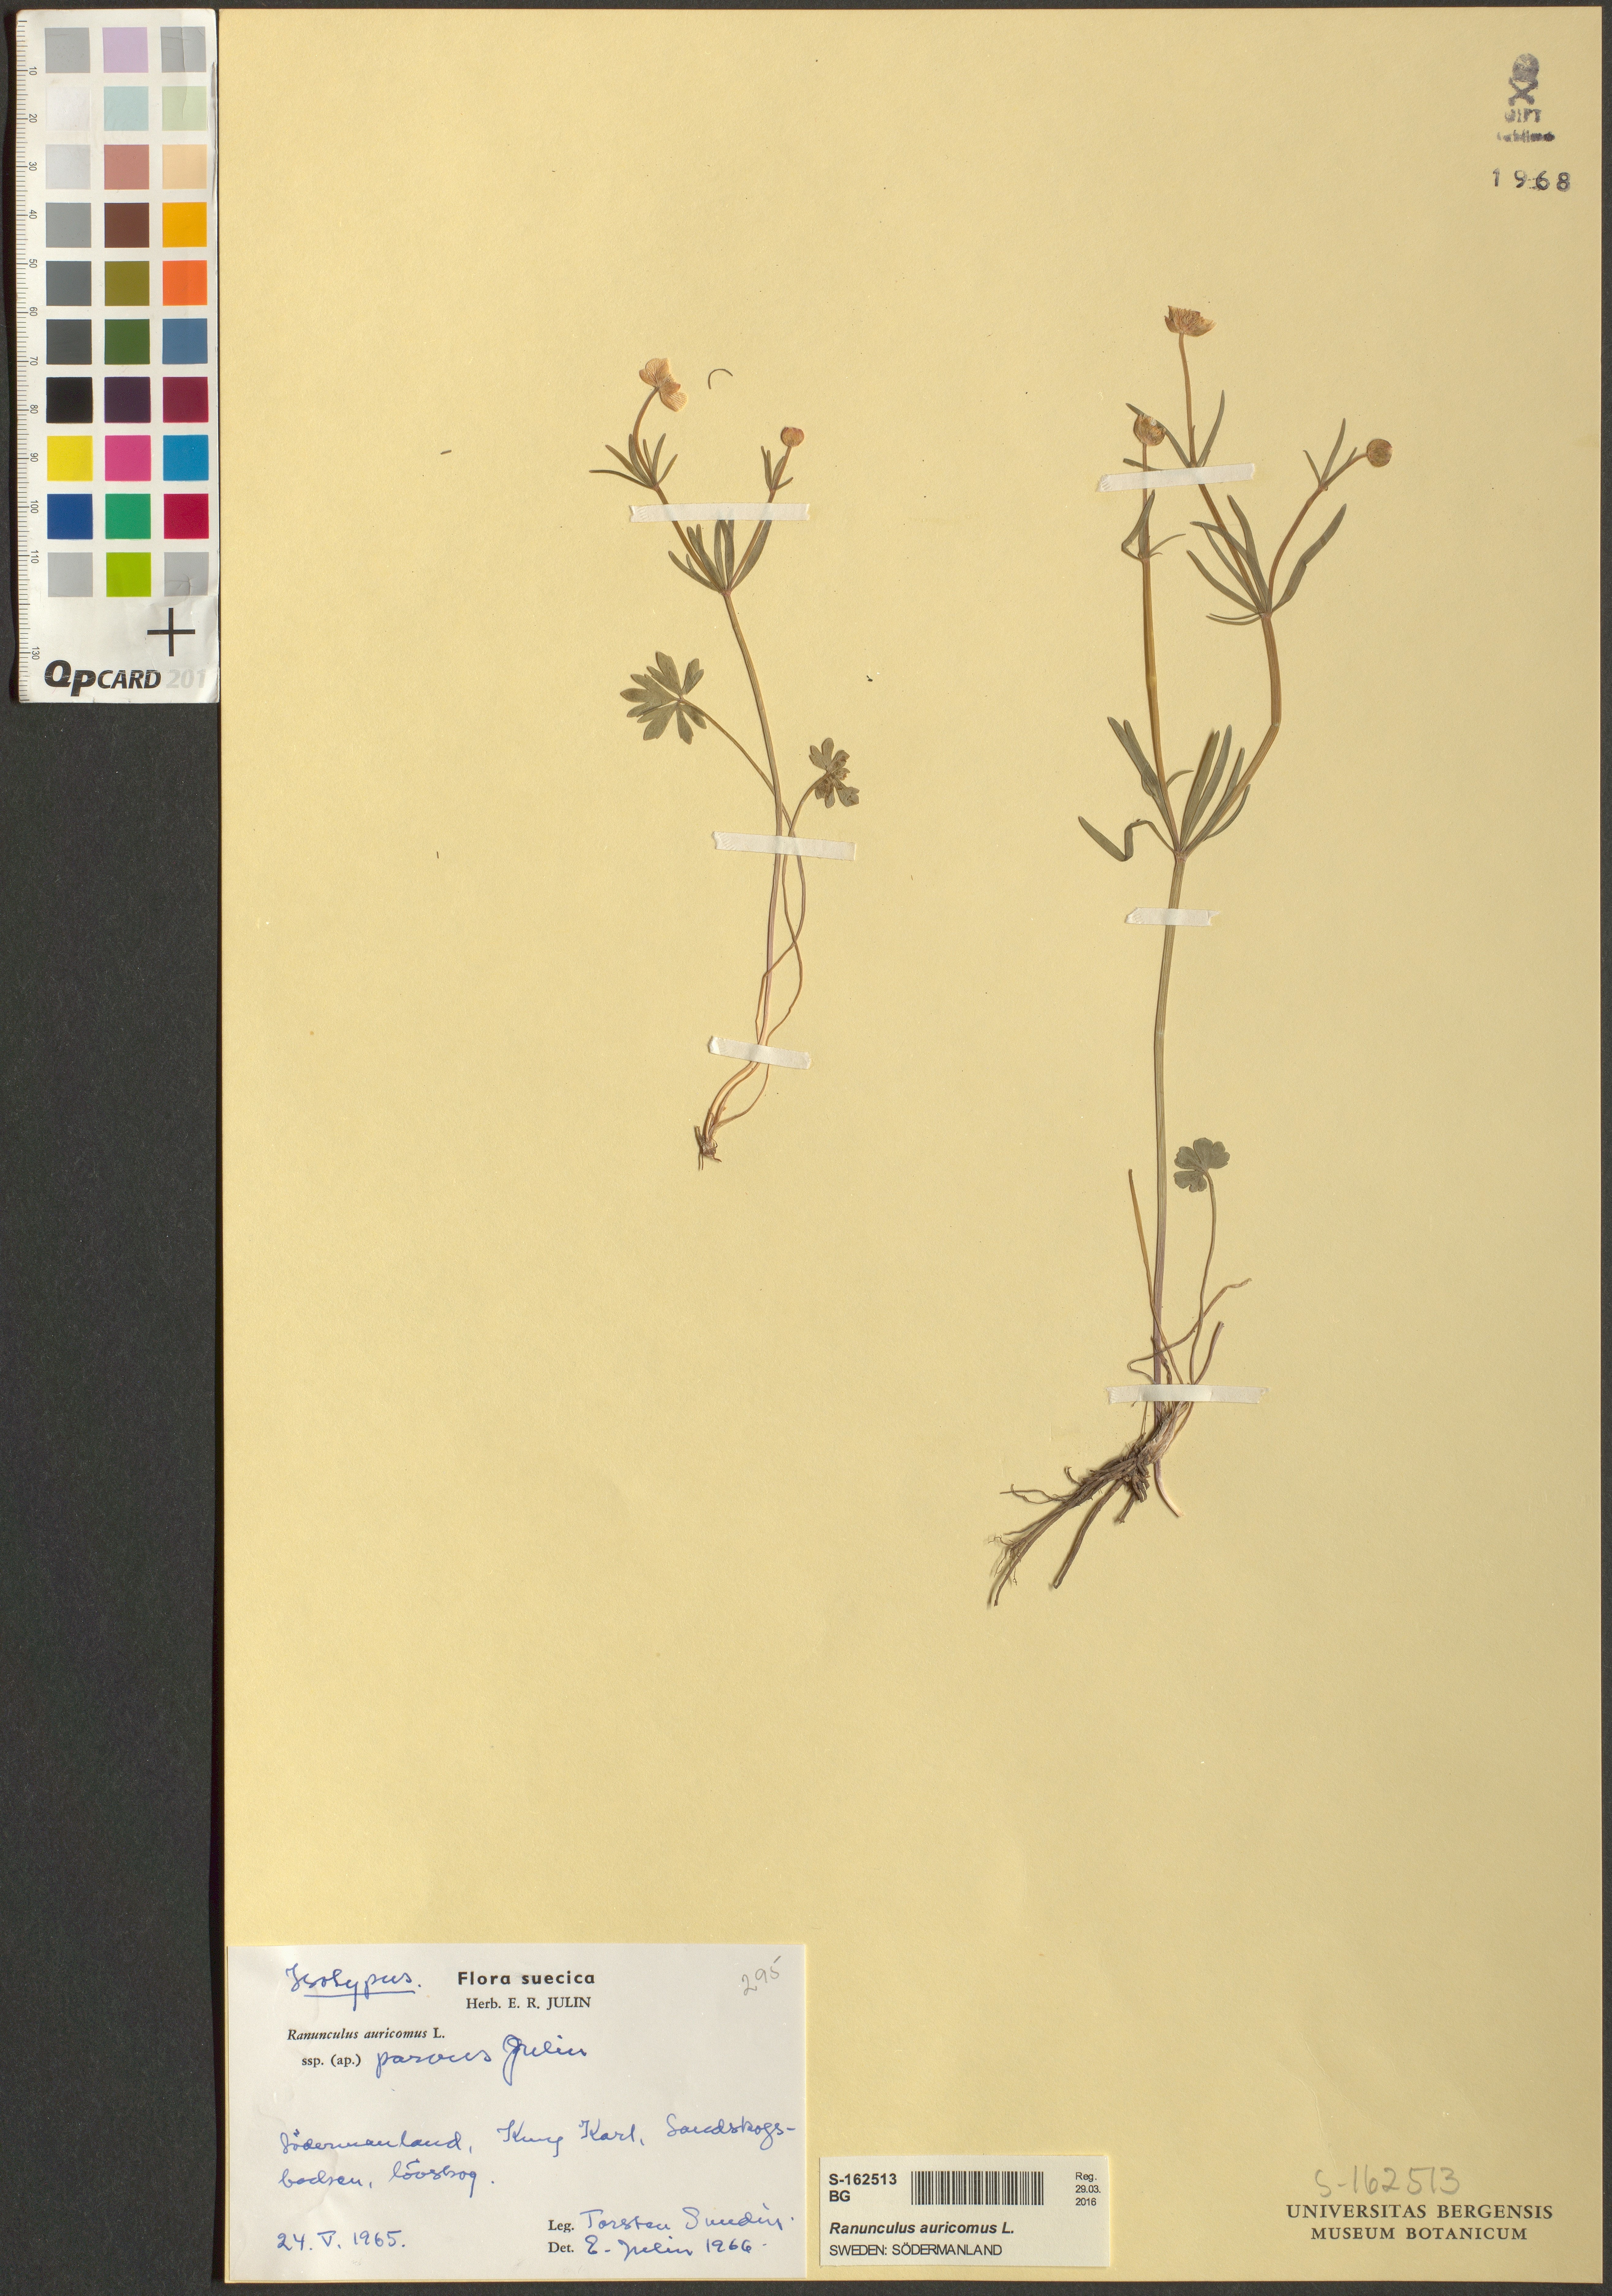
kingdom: Plantae
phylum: Tracheophyta
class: Magnoliopsida
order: Ranunculales
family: Ranunculaceae
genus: Ranunculus
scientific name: Ranunculus auricomus
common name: Goldilocks buttercup
